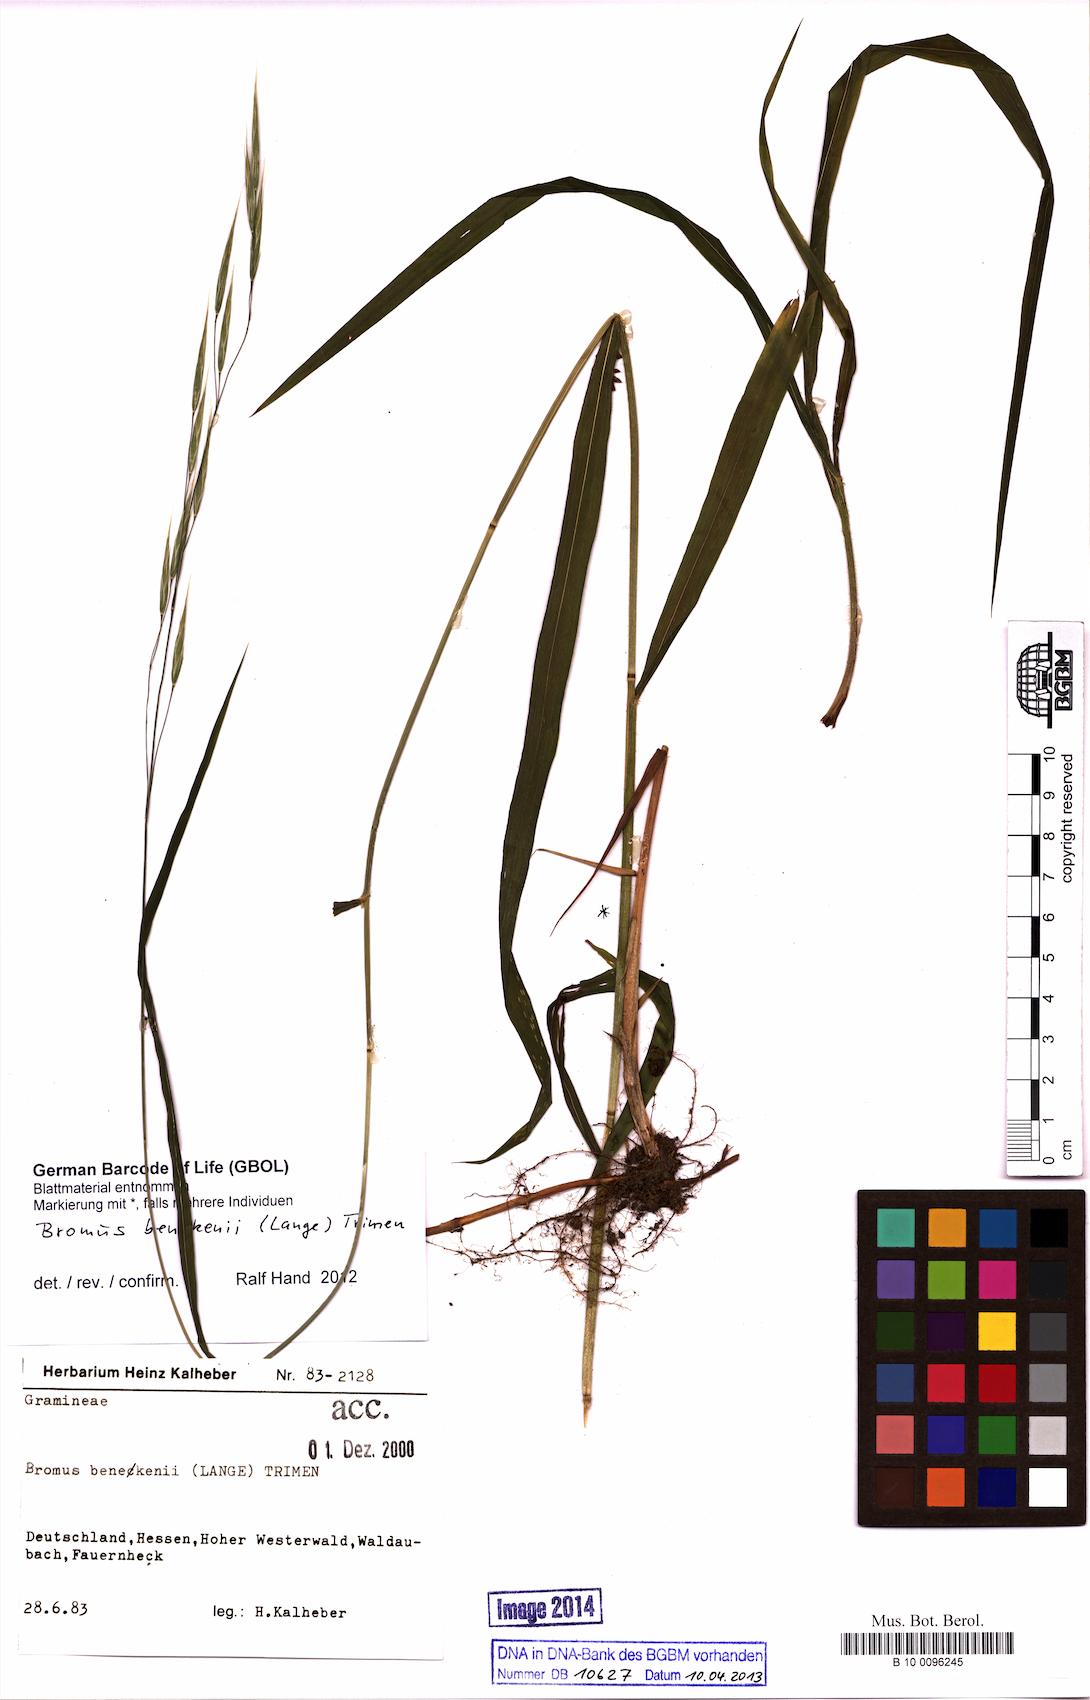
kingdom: Plantae
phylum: Tracheophyta
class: Liliopsida
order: Poales
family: Poaceae
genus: Bromus
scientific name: Bromus benekenii
